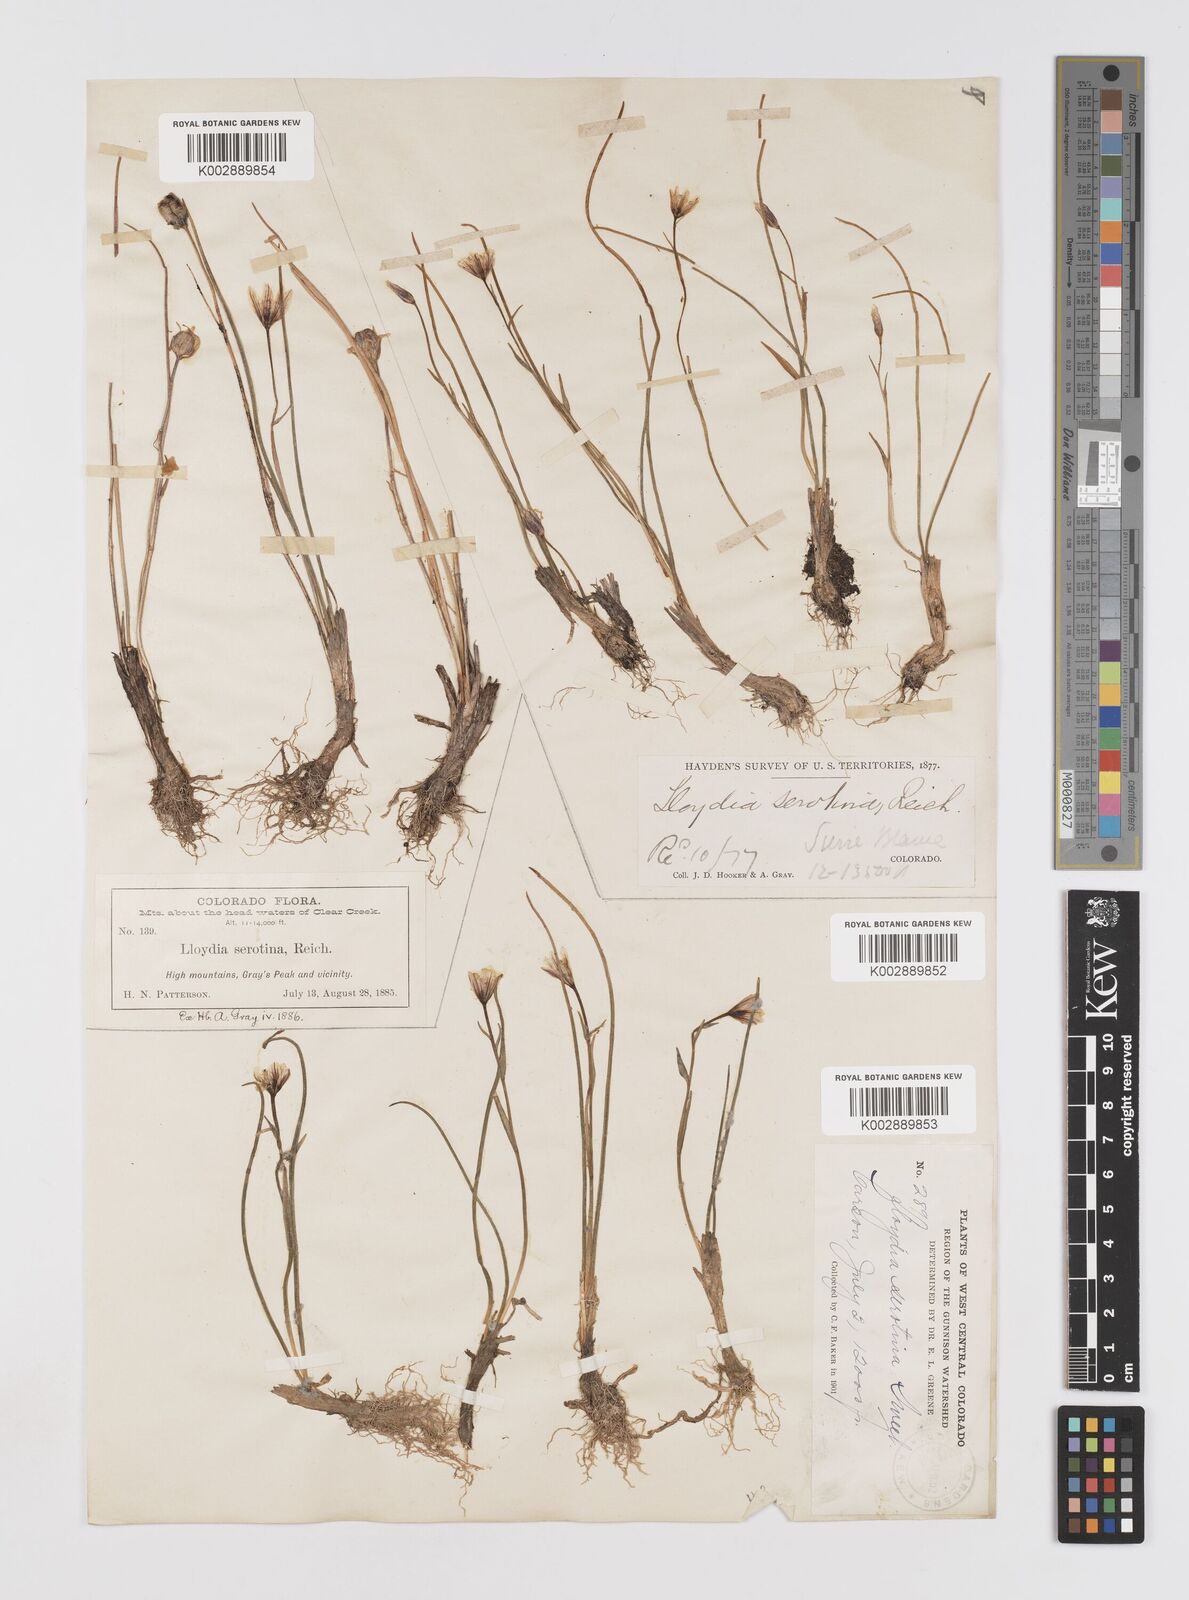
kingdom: Plantae
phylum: Tracheophyta
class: Liliopsida
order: Liliales
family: Liliaceae
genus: Gagea
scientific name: Gagea serotina
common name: Snowdon lily
